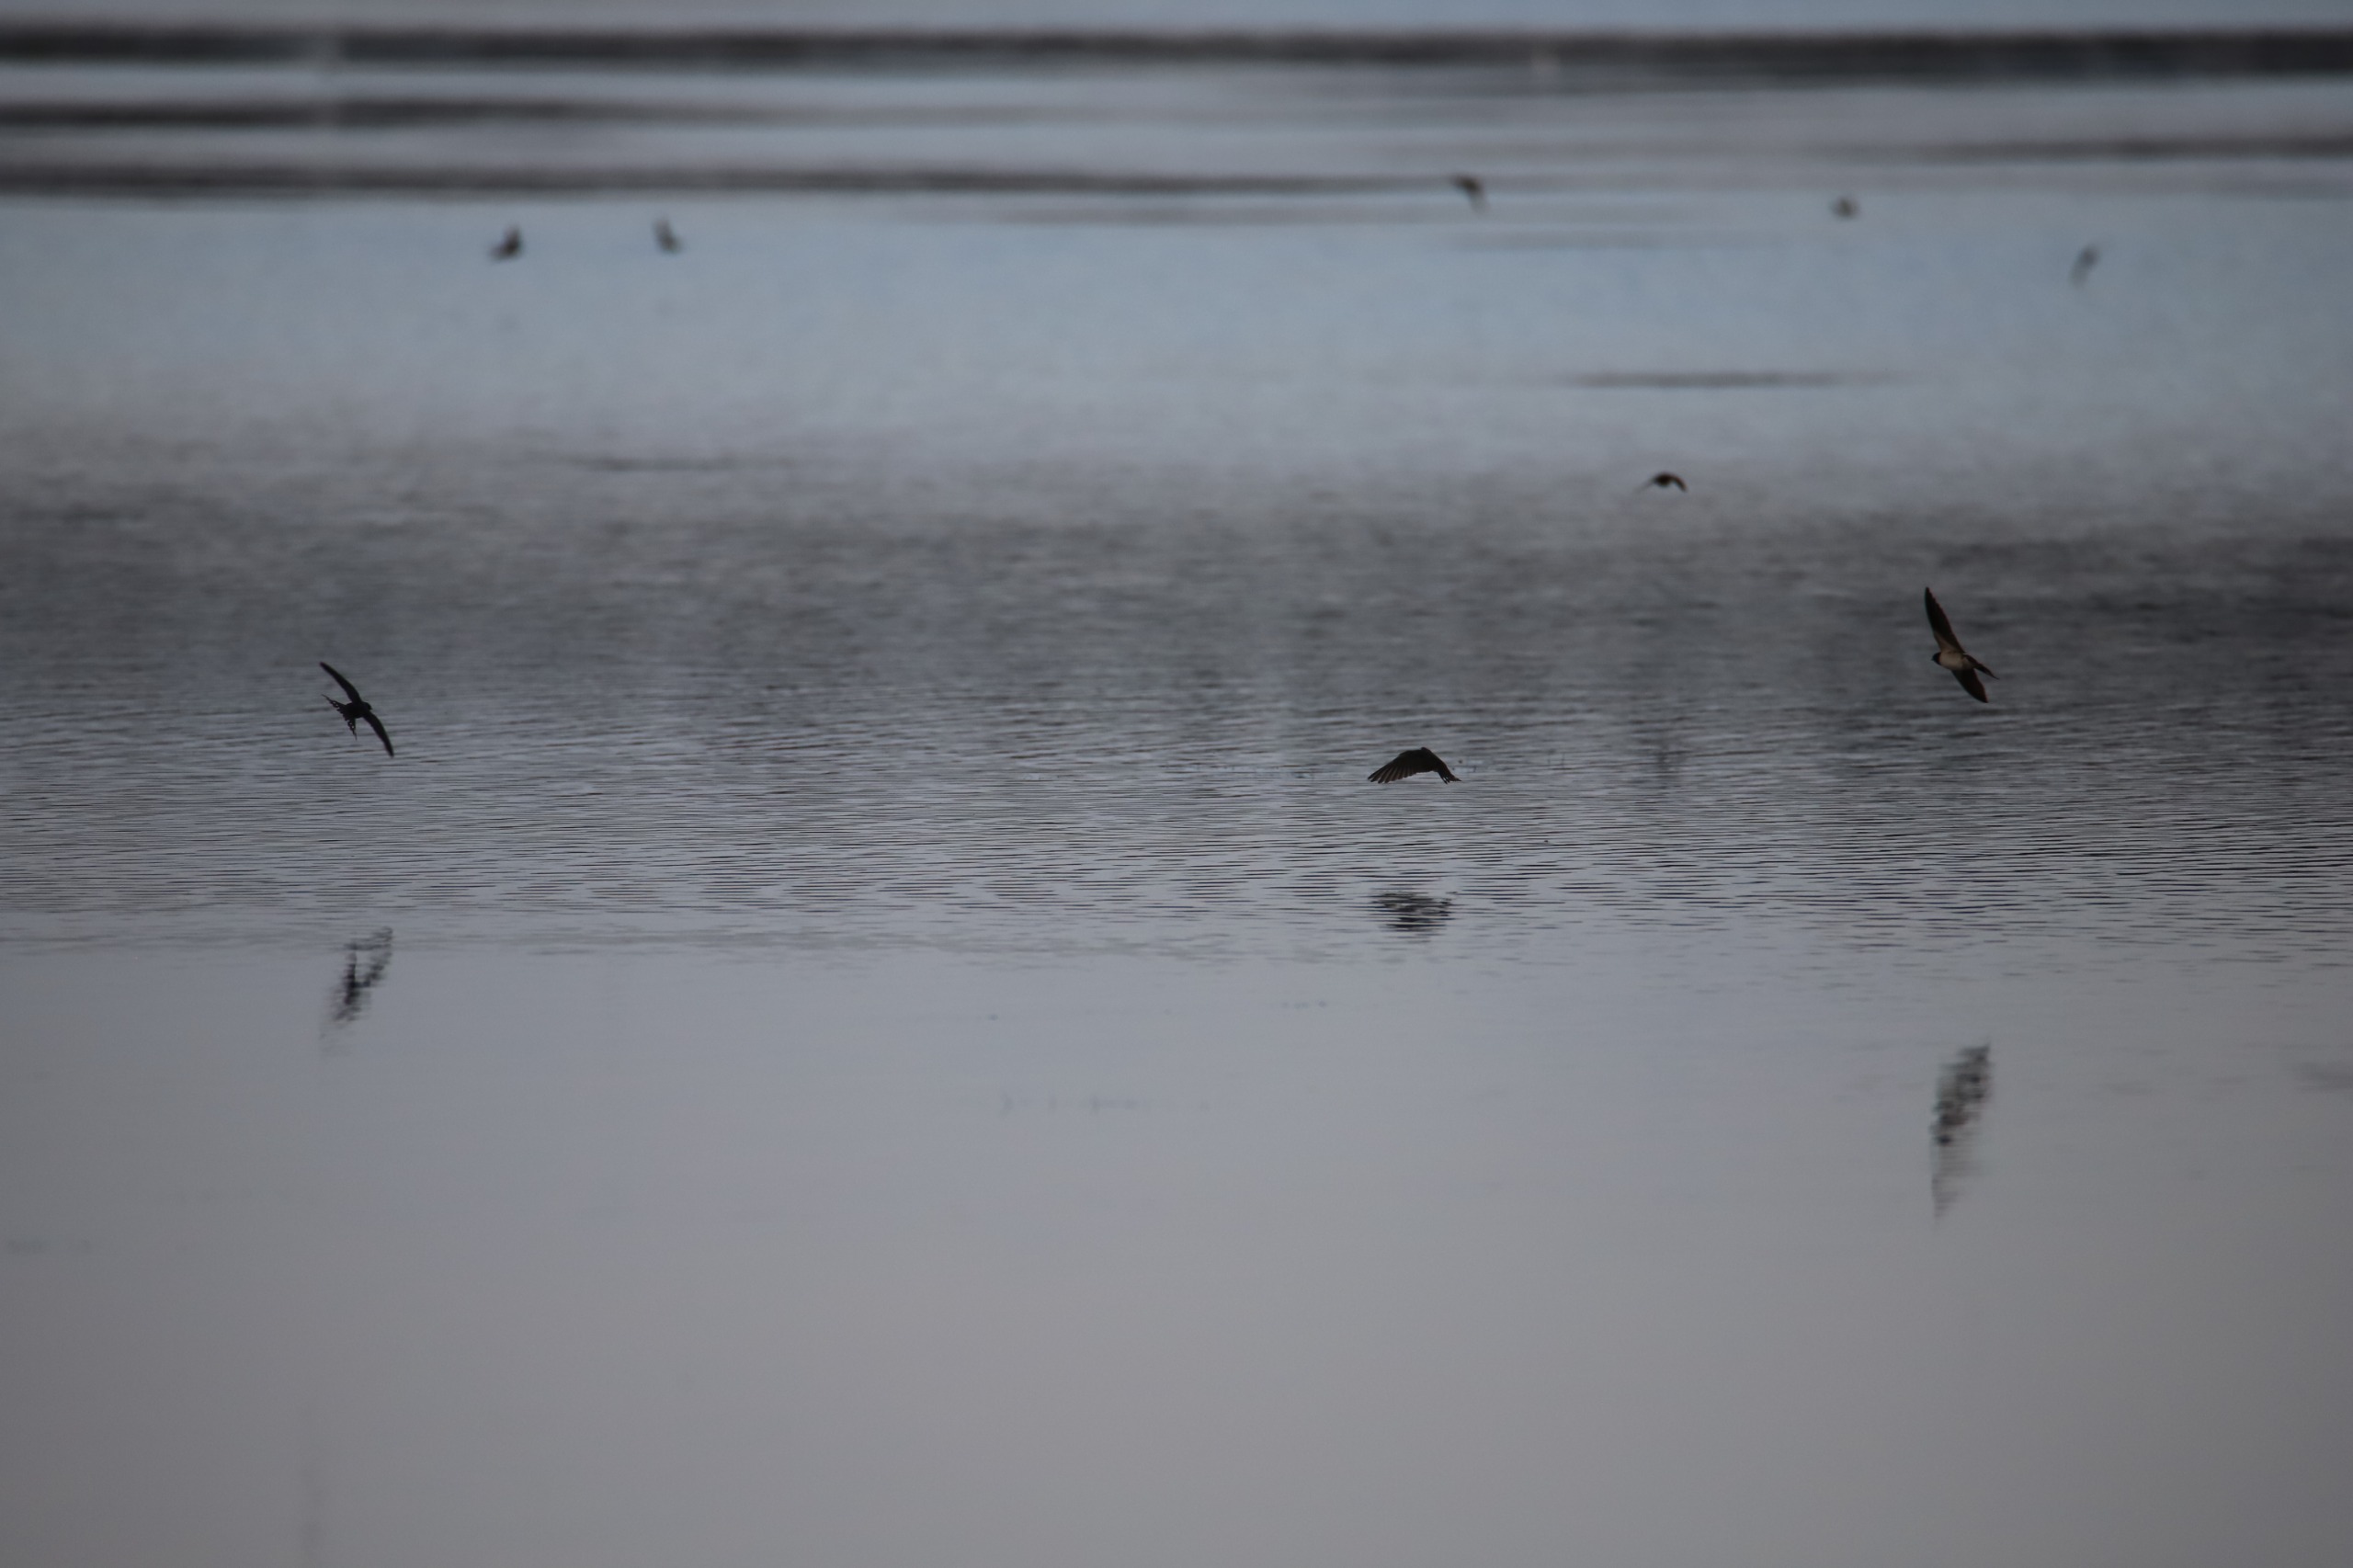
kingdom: Animalia
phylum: Chordata
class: Aves
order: Passeriformes
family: Hirundinidae
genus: Hirundo
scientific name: Hirundo rustica
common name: Landsvale
